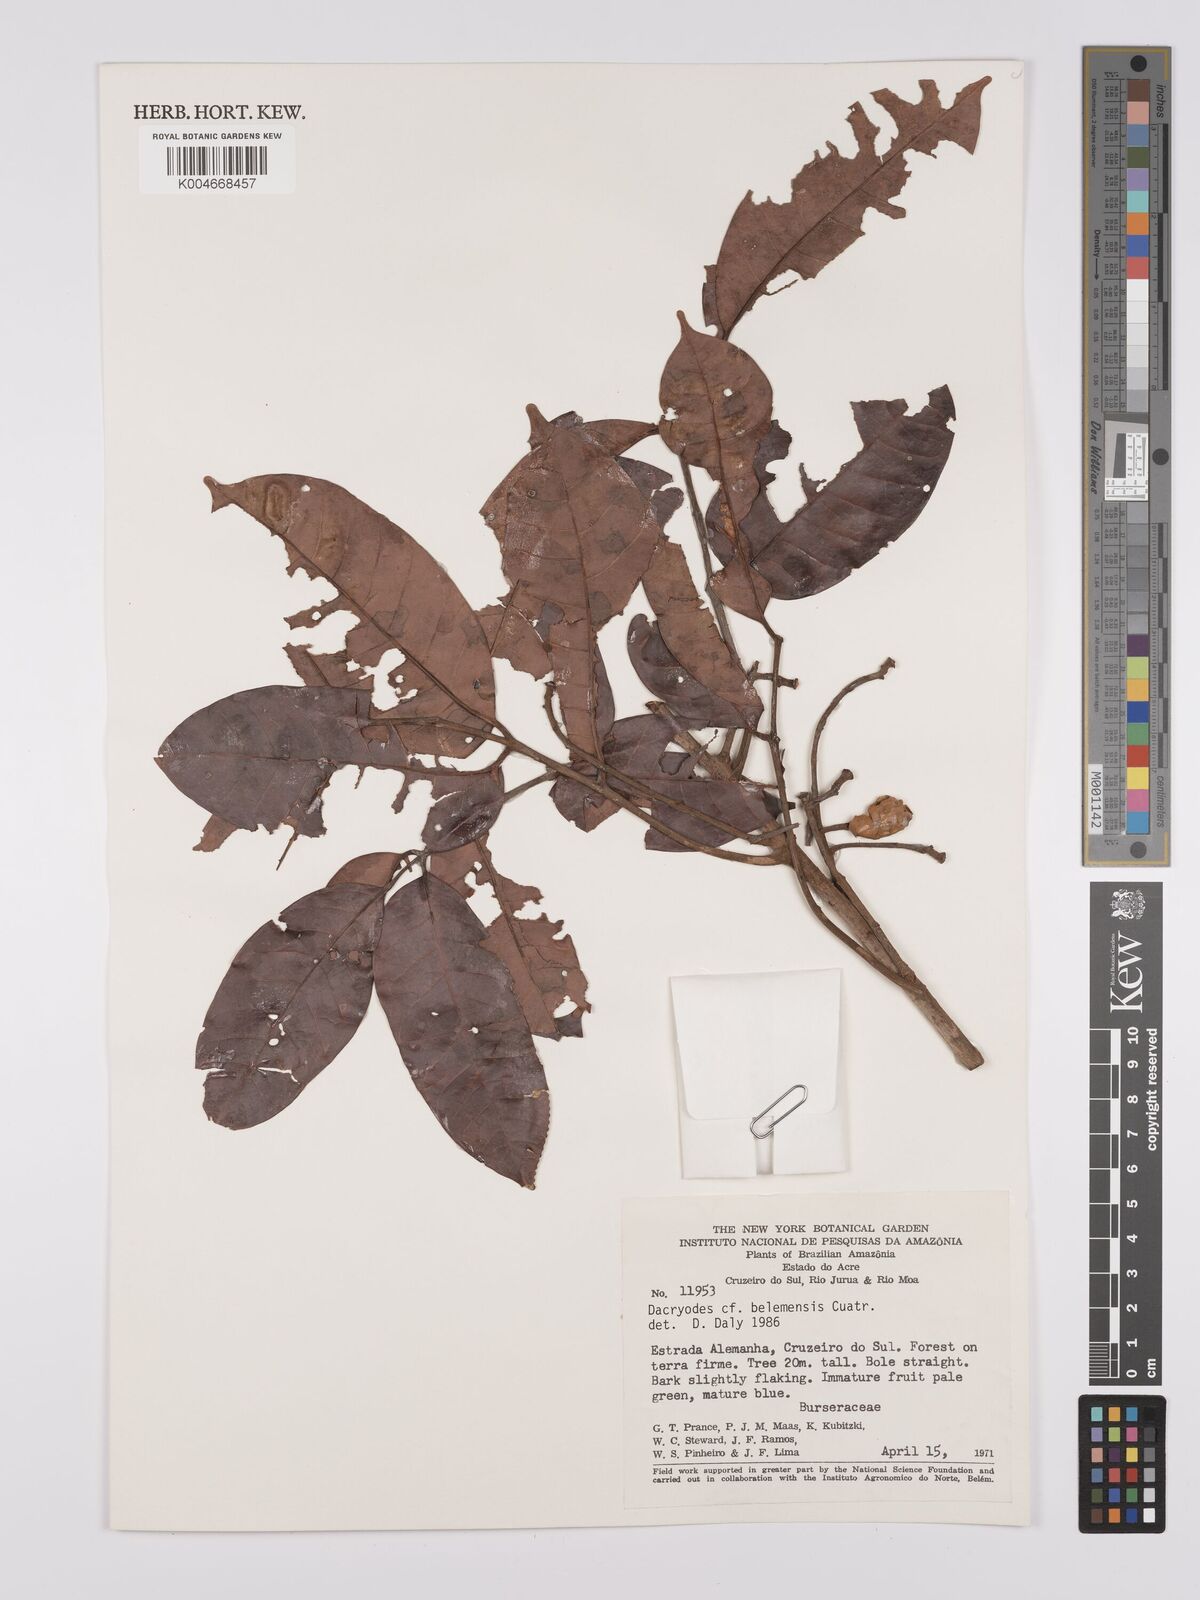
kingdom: Plantae
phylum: Tracheophyta
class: Magnoliopsida
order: Sapindales
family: Burseraceae
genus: Dacryodes
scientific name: Dacryodes belemensis
